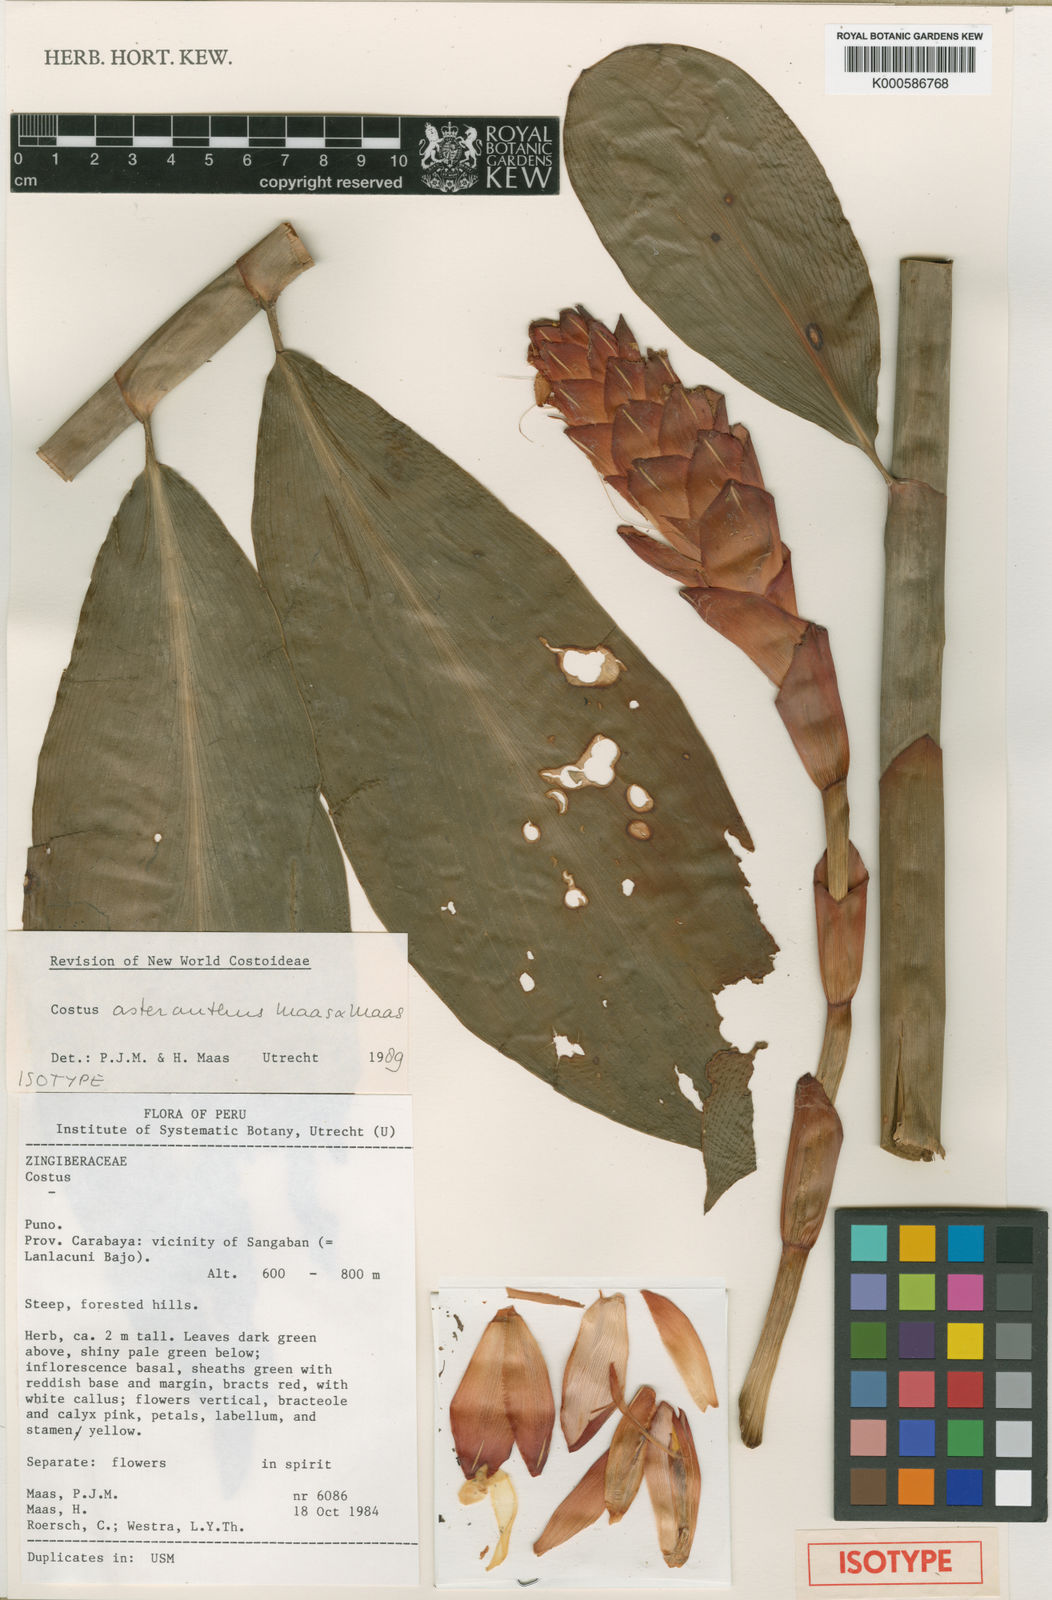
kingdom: Plantae
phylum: Tracheophyta
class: Liliopsida
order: Zingiberales
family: Costaceae
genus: Costus
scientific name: Costus asteranthus
